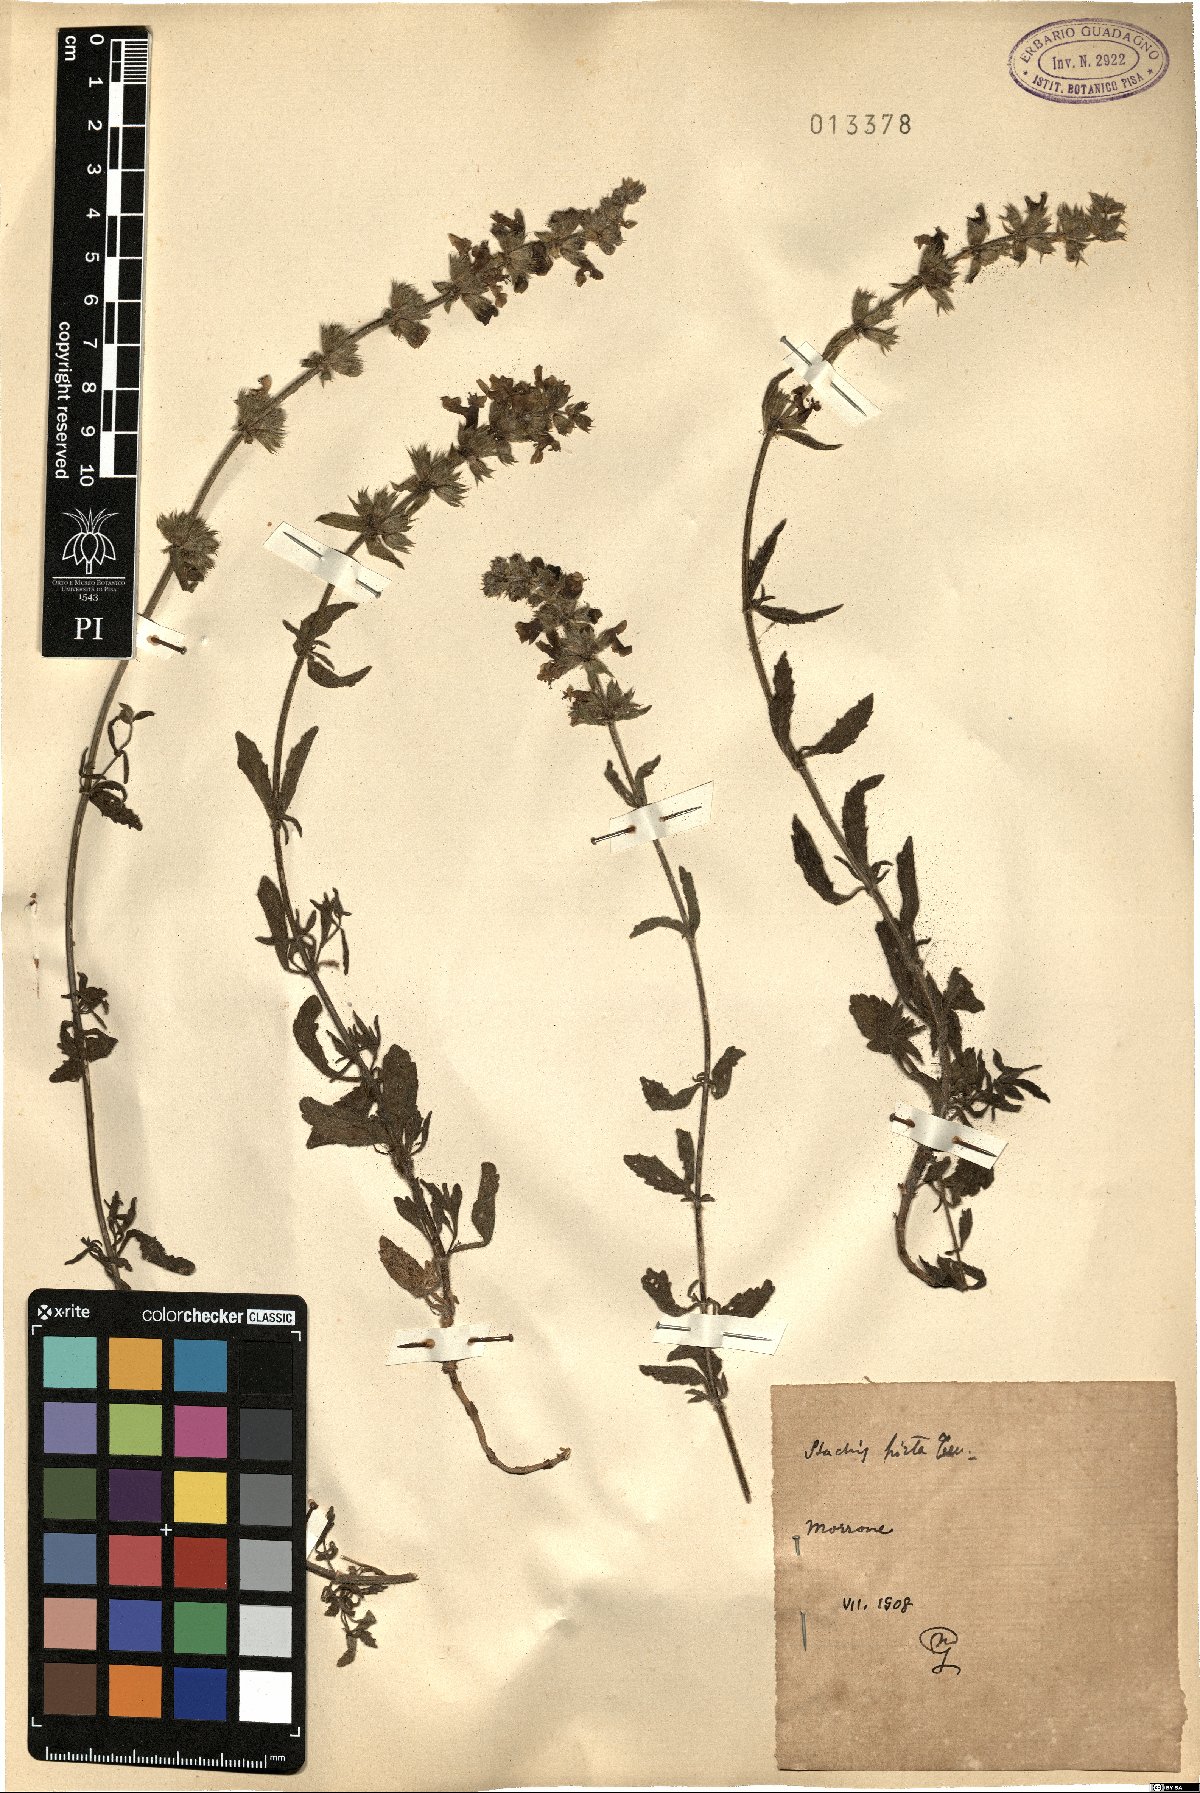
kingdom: Plantae
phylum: Tracheophyta
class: Magnoliopsida
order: Lamiales
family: Lamiaceae
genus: Stachys
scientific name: Stachys ocymastrum
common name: Italian hedgenettle
